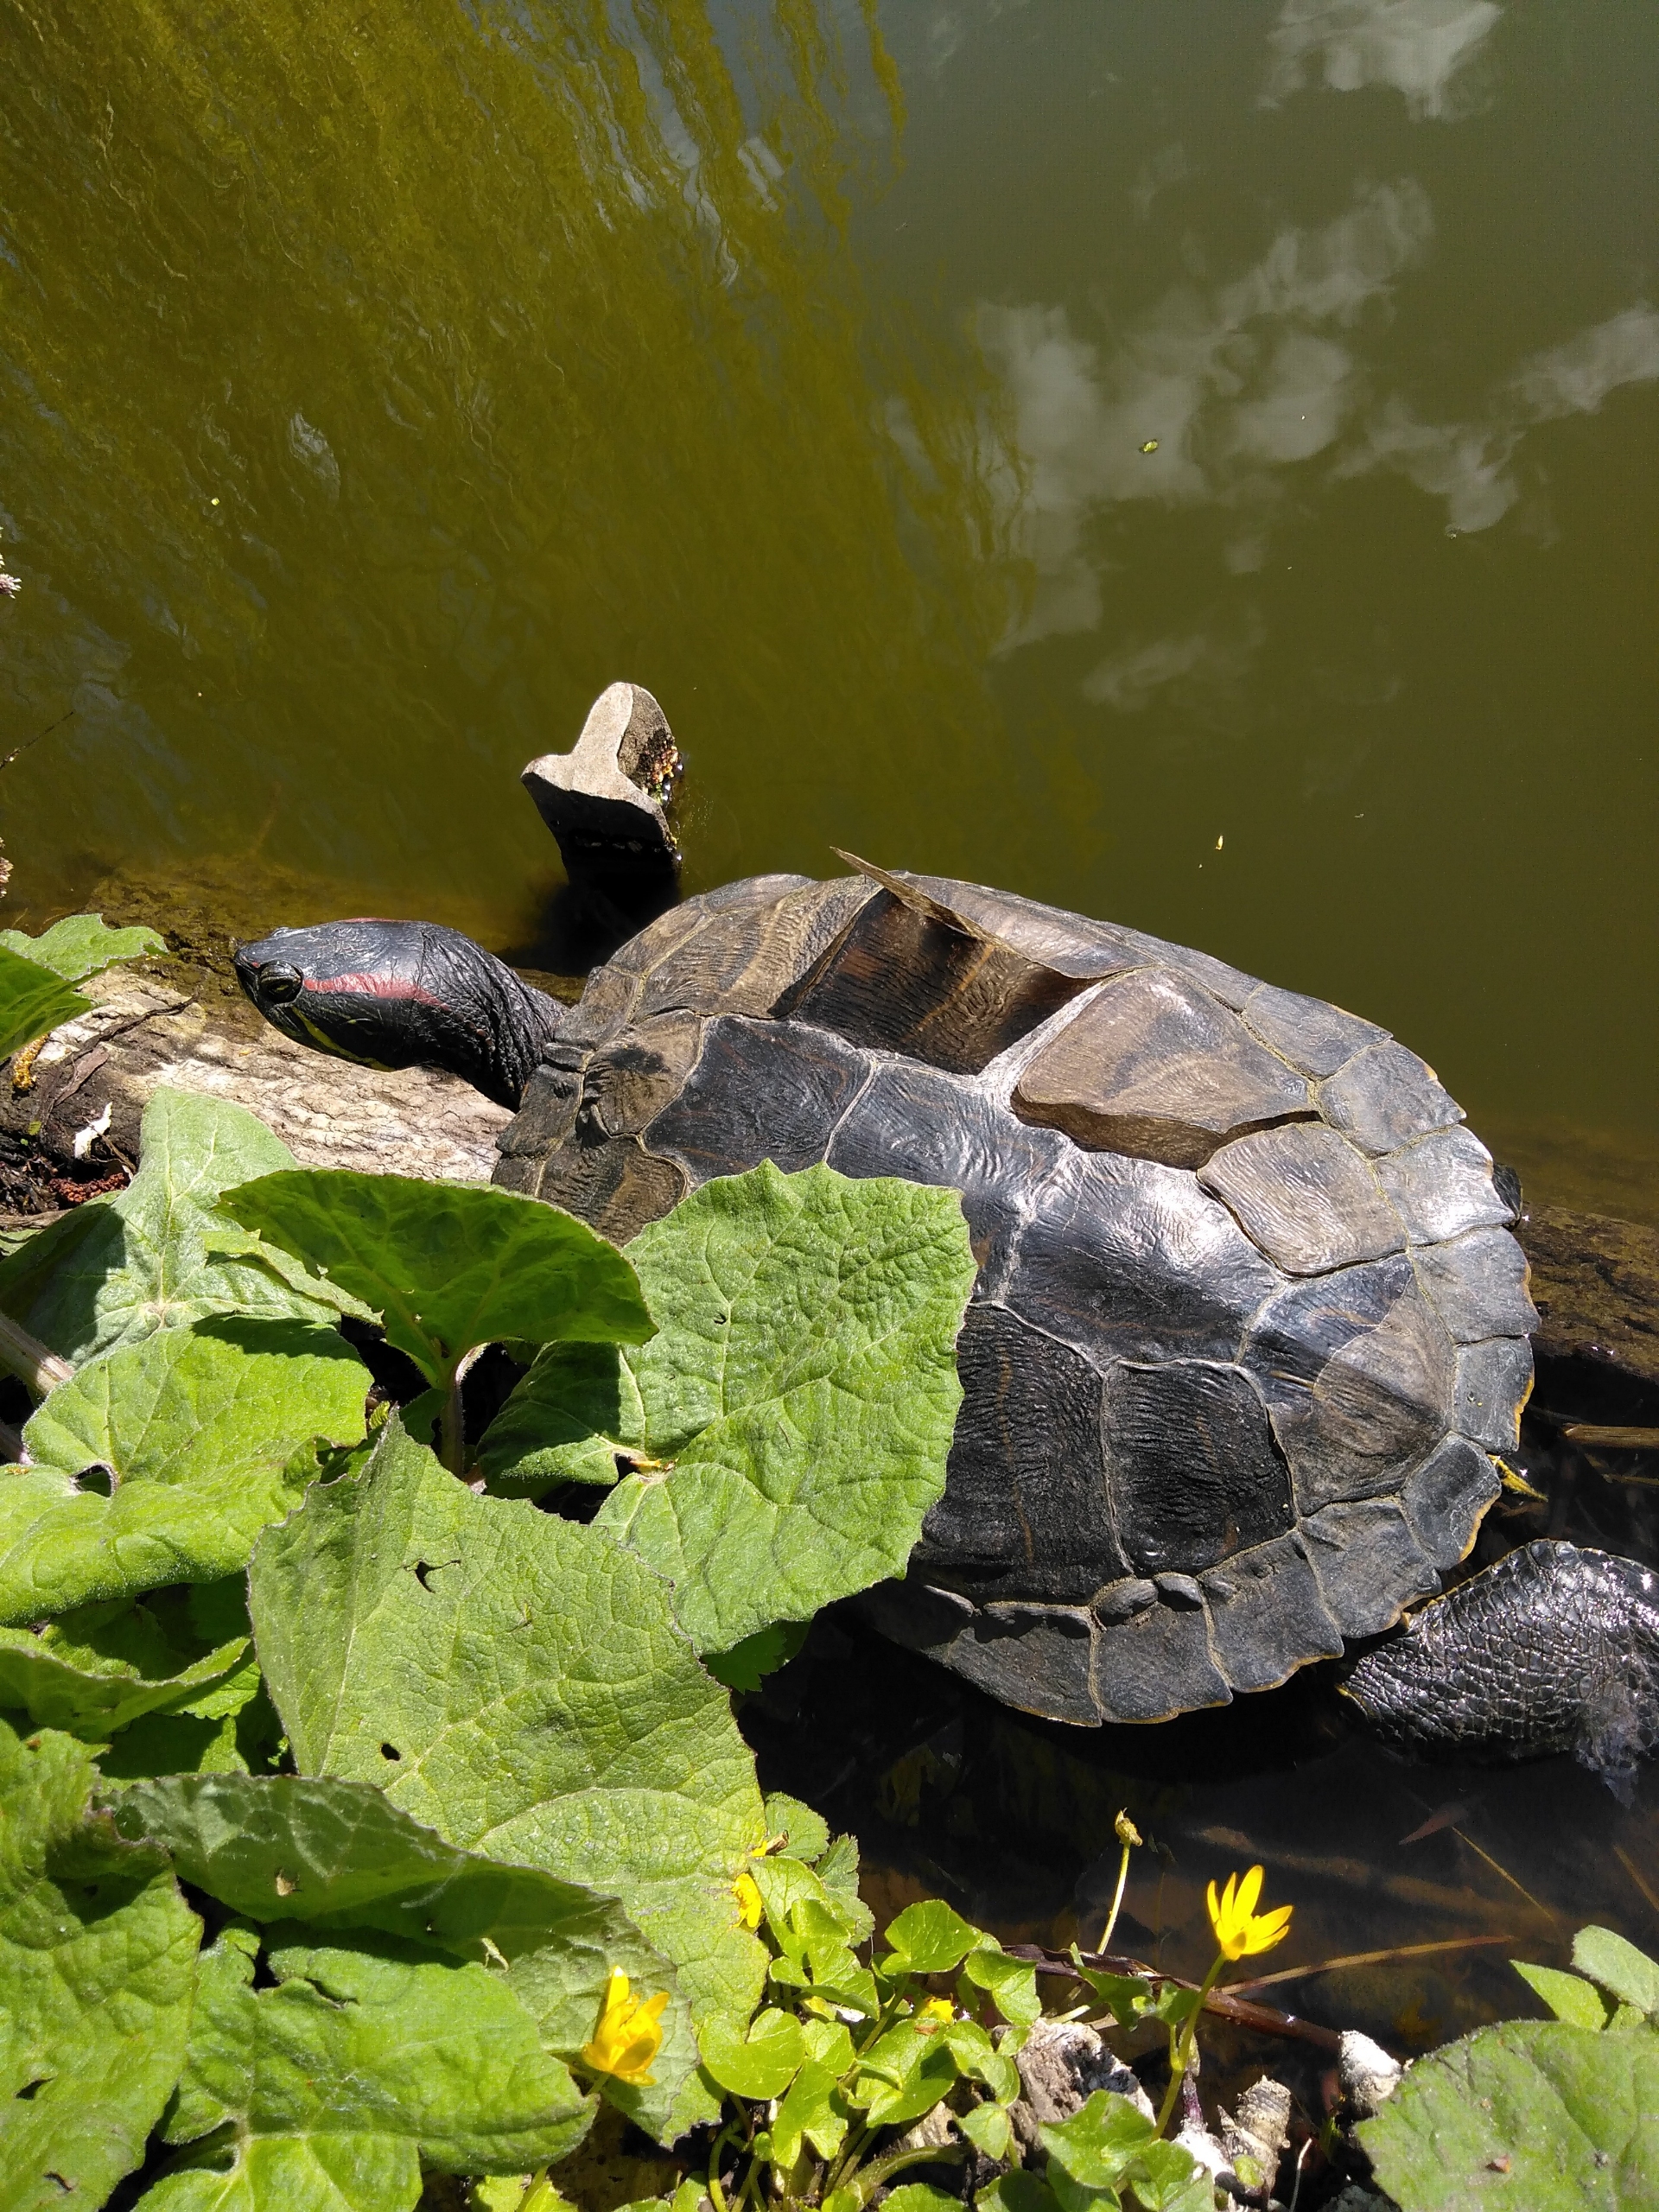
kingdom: Animalia
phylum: Chordata
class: Testudines
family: Emydidae
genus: Trachemys
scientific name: Trachemys scripta
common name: Rødøret terrapin
